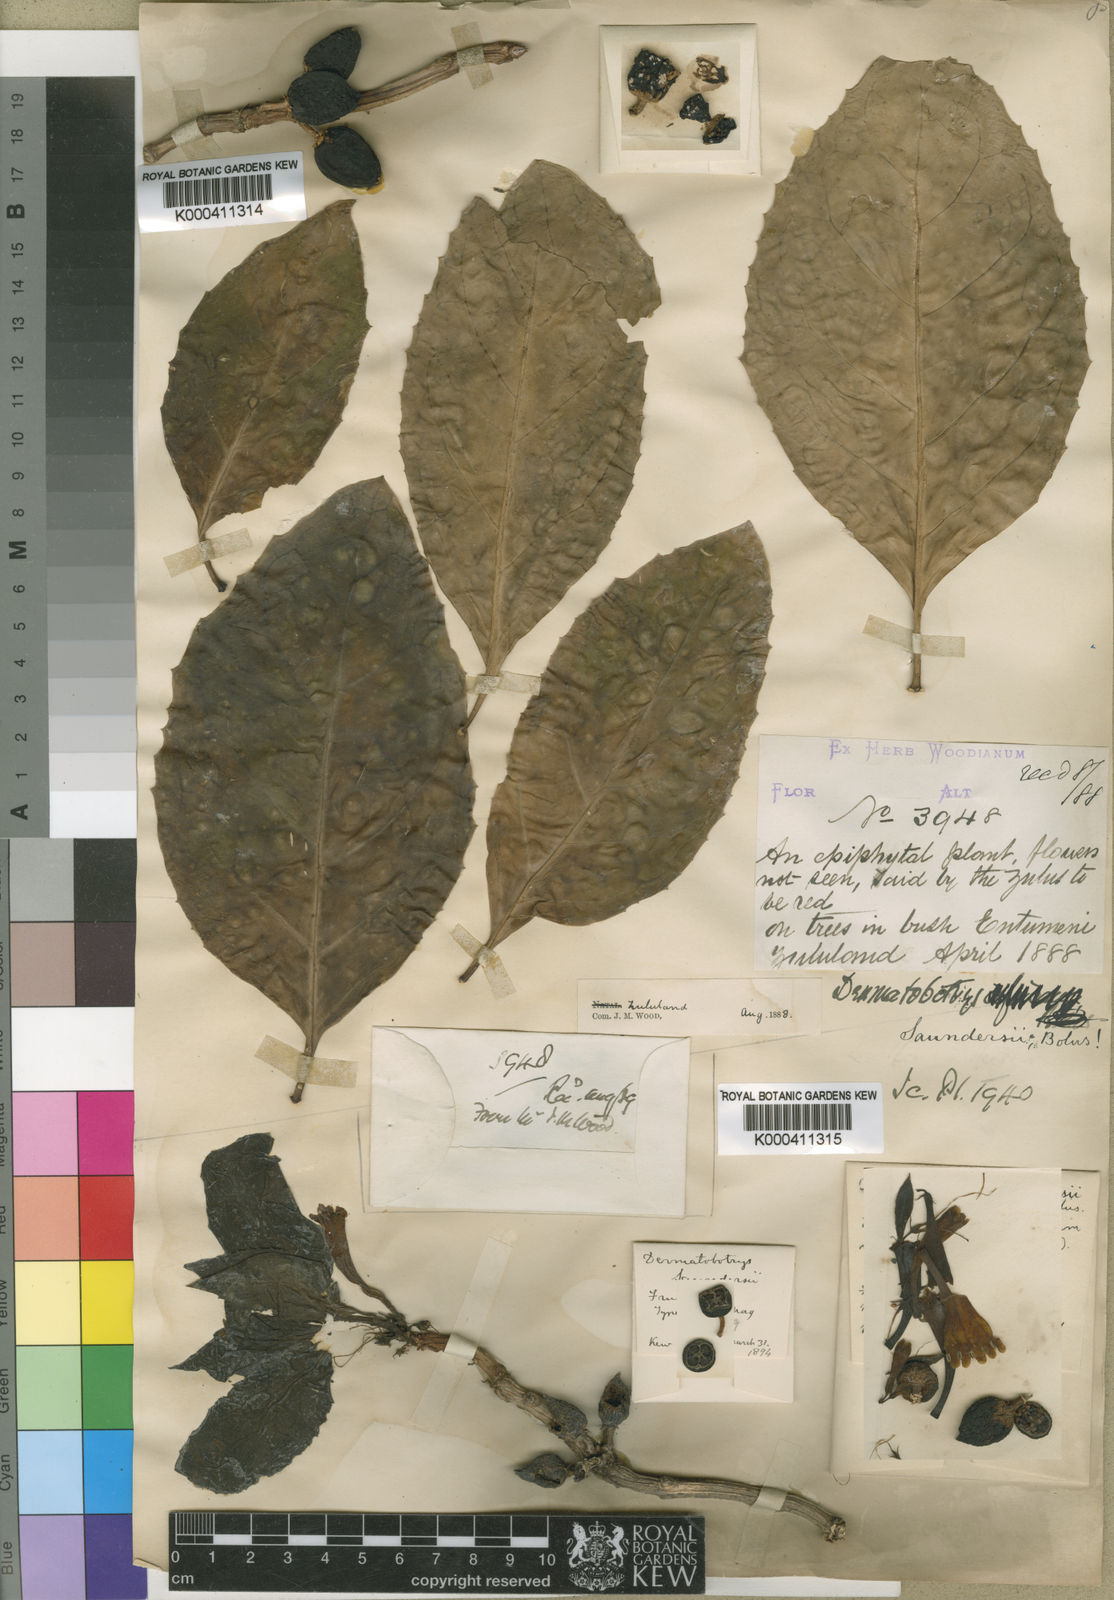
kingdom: Plantae
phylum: Tracheophyta
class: Magnoliopsida
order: Lamiales
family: Scrophulariaceae
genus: Dermatobotrys
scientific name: Dermatobotrys saundersii
